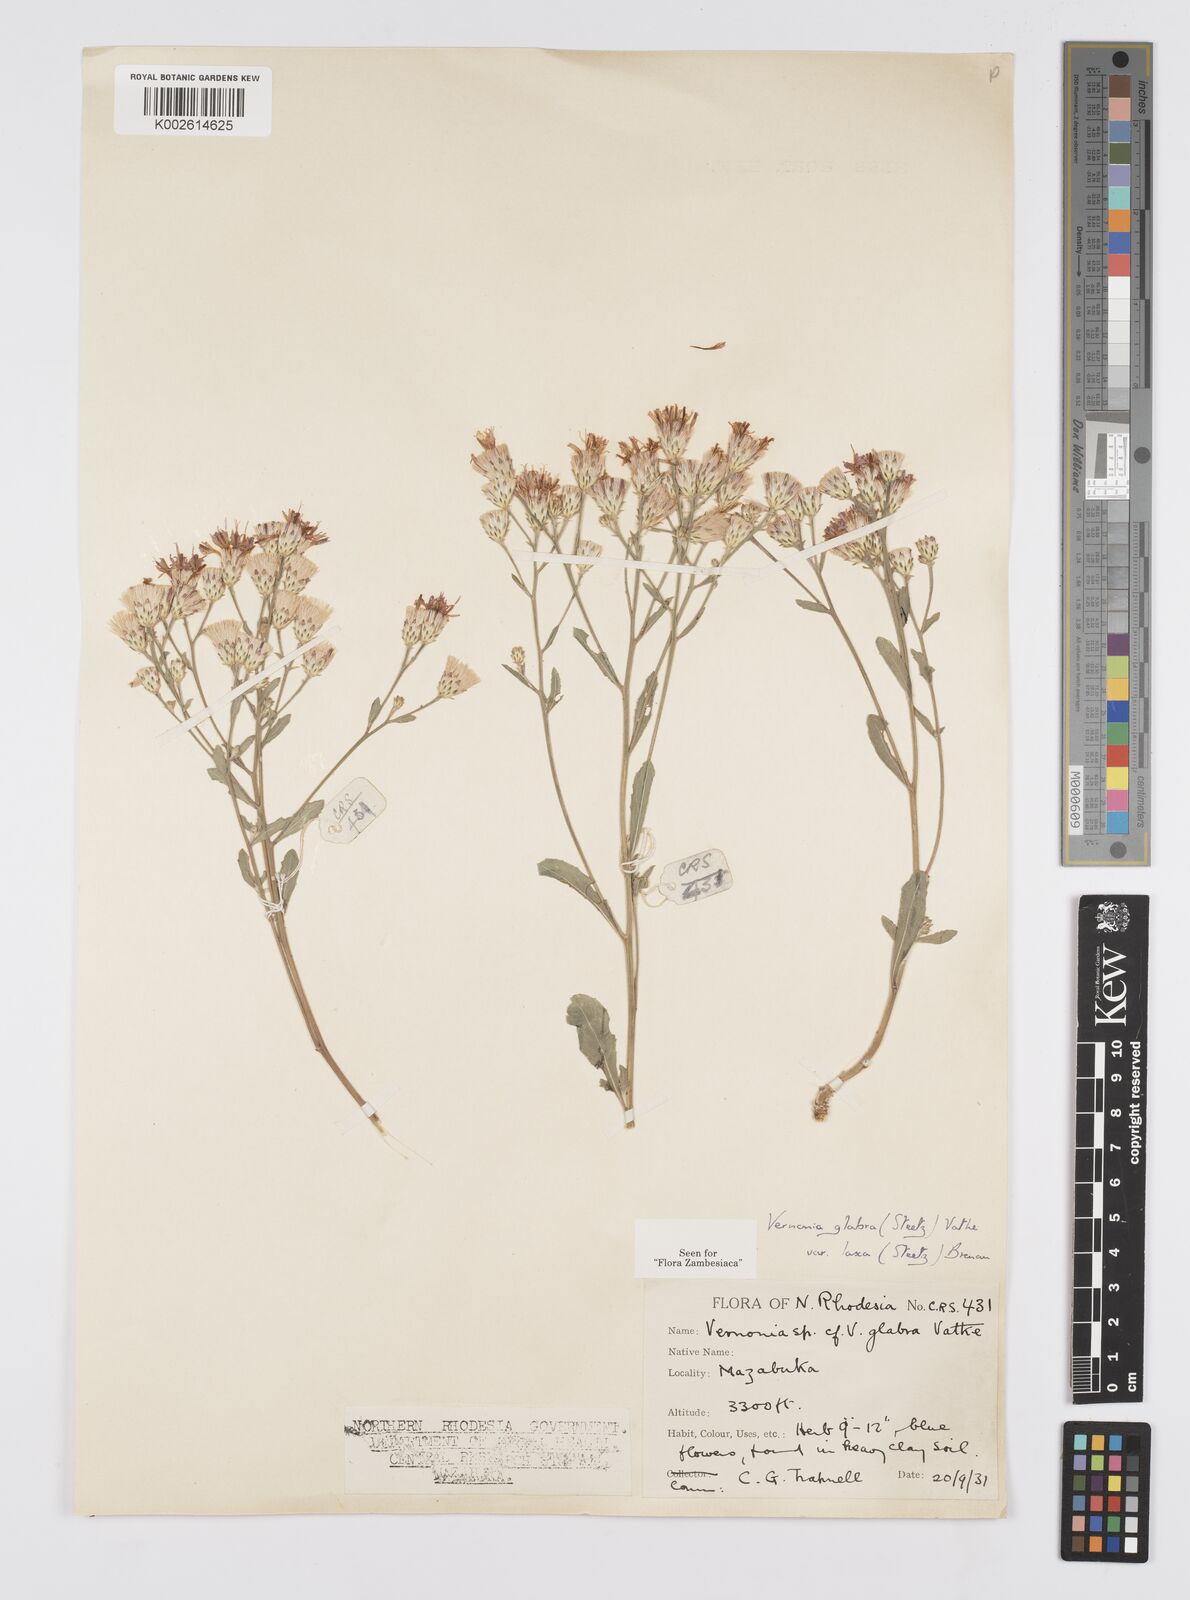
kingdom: Plantae
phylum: Tracheophyta
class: Magnoliopsida
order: Asterales
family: Asteraceae
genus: Linzia
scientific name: Linzia glabra
